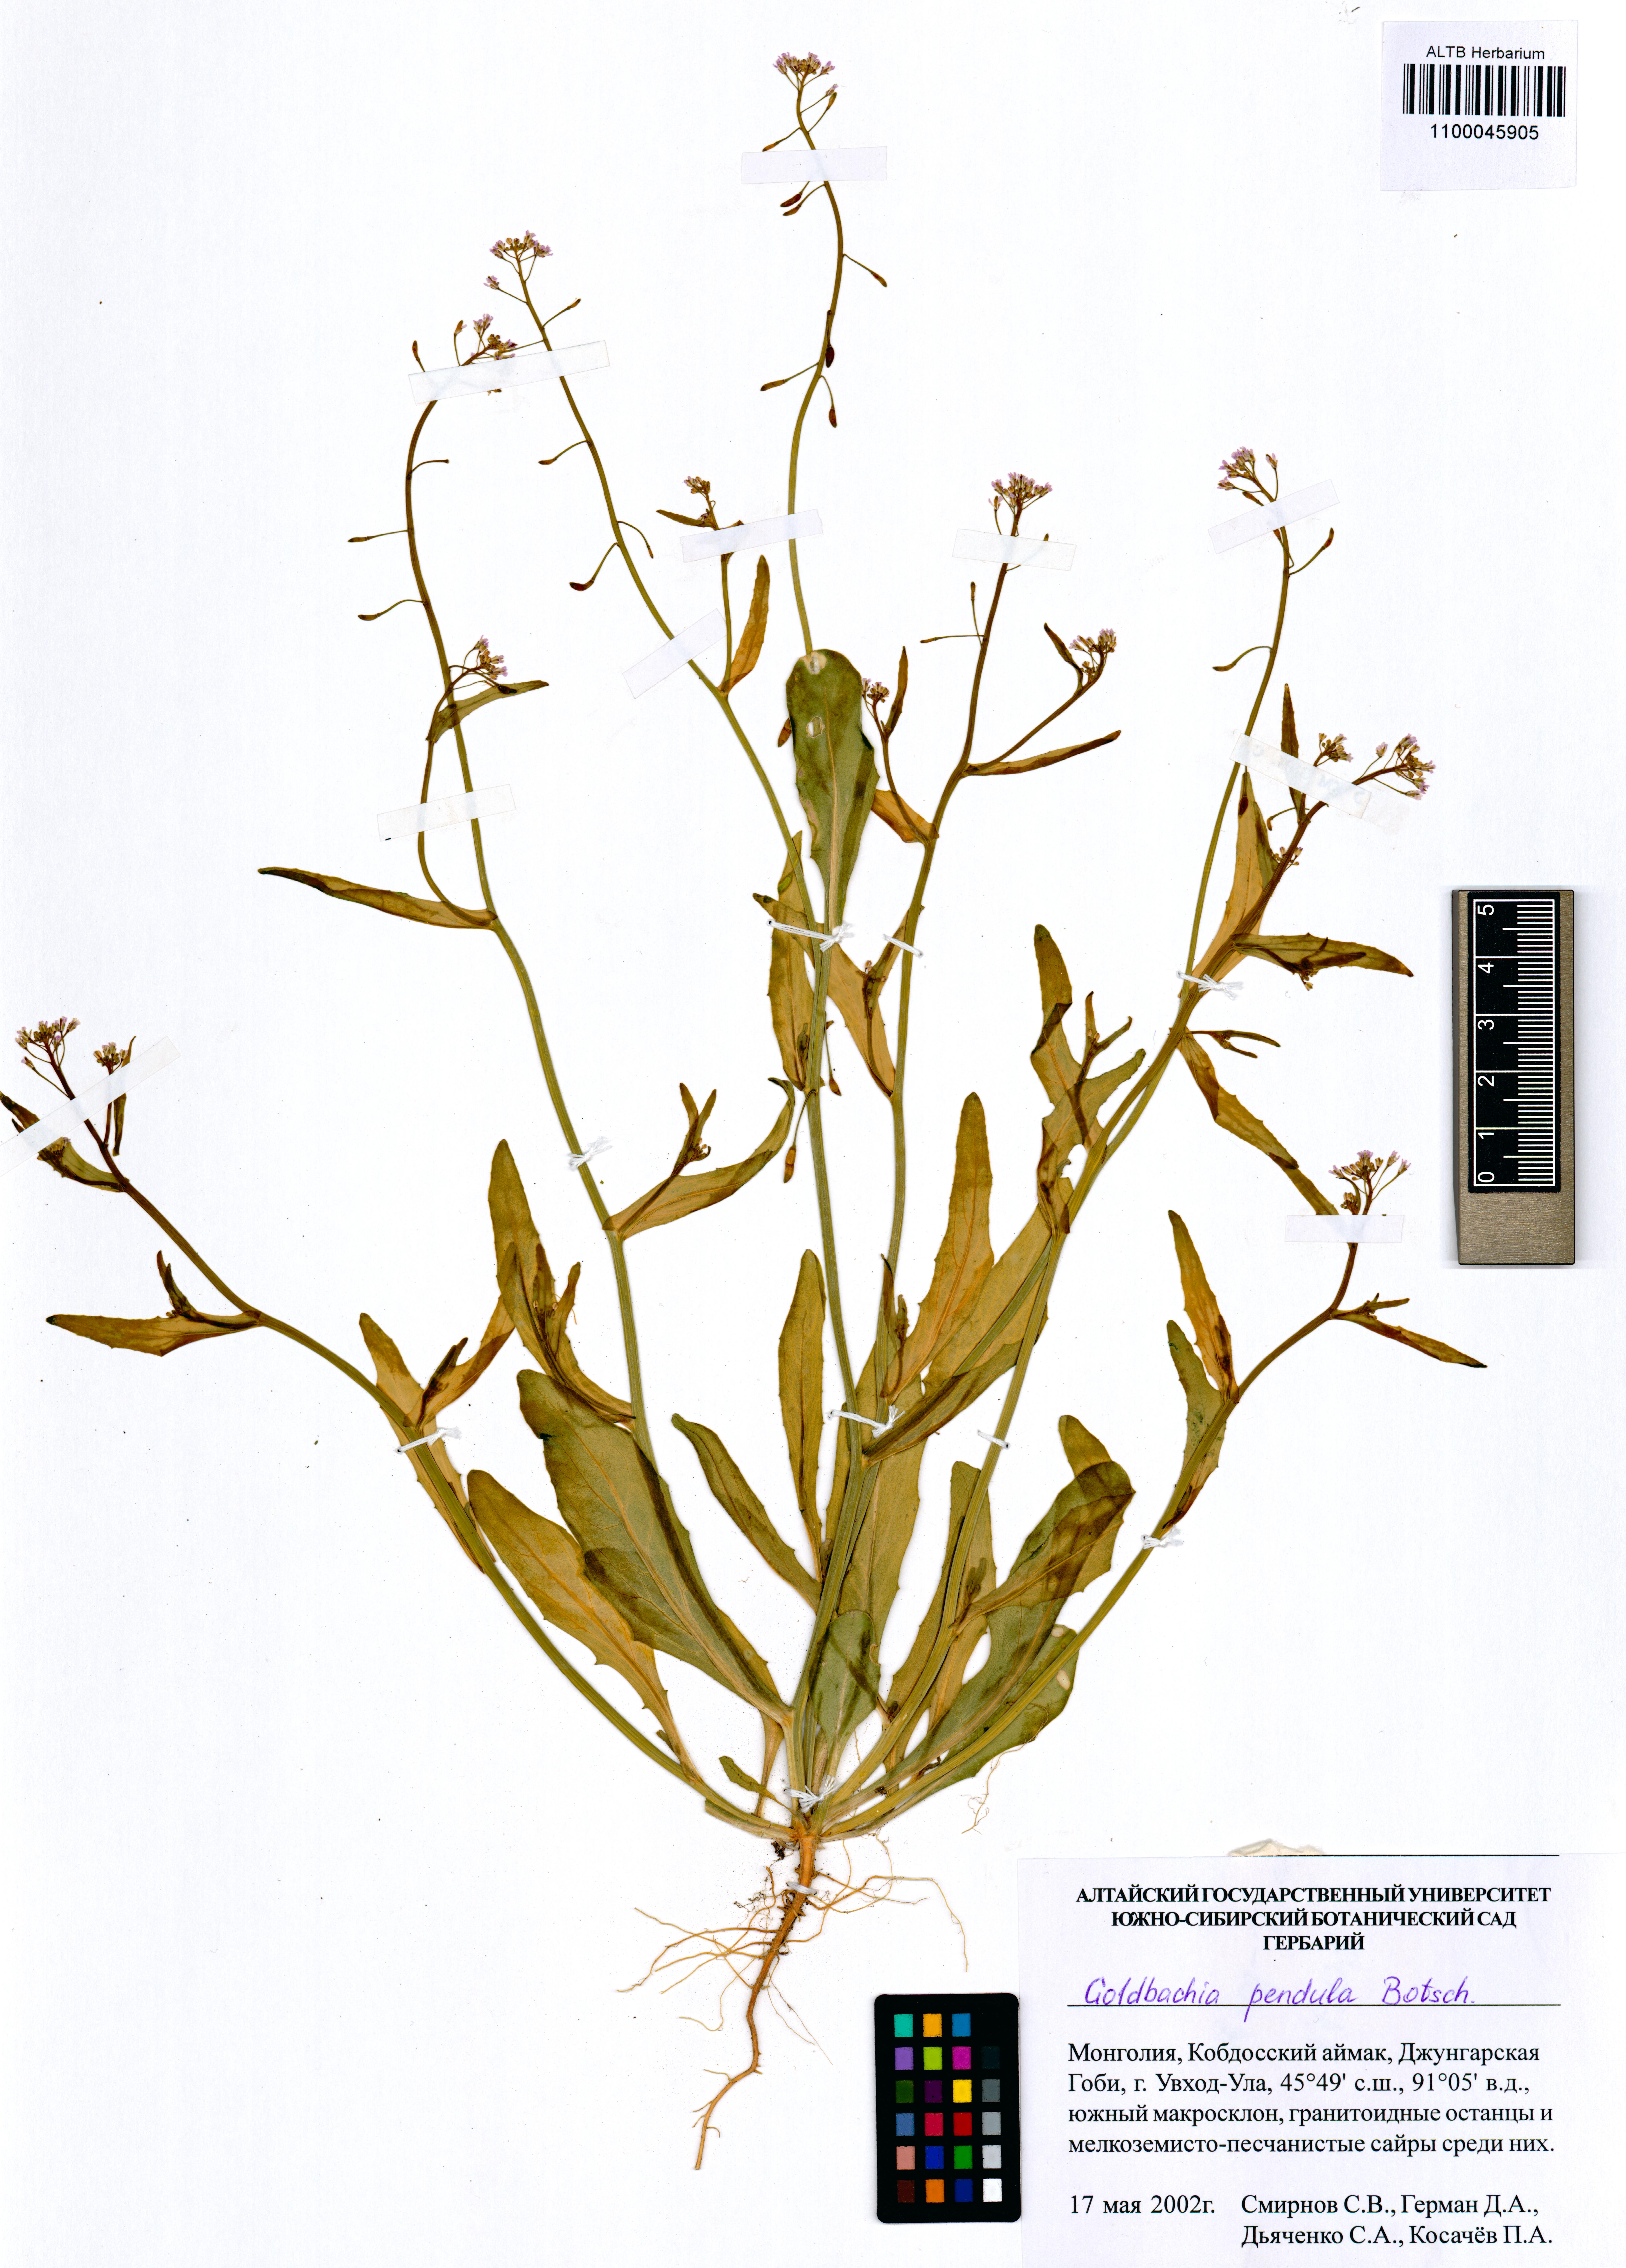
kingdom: Plantae
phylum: Tracheophyta
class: Magnoliopsida
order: Brassicales
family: Brassicaceae
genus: Goldbachia
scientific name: Goldbachia pendula
